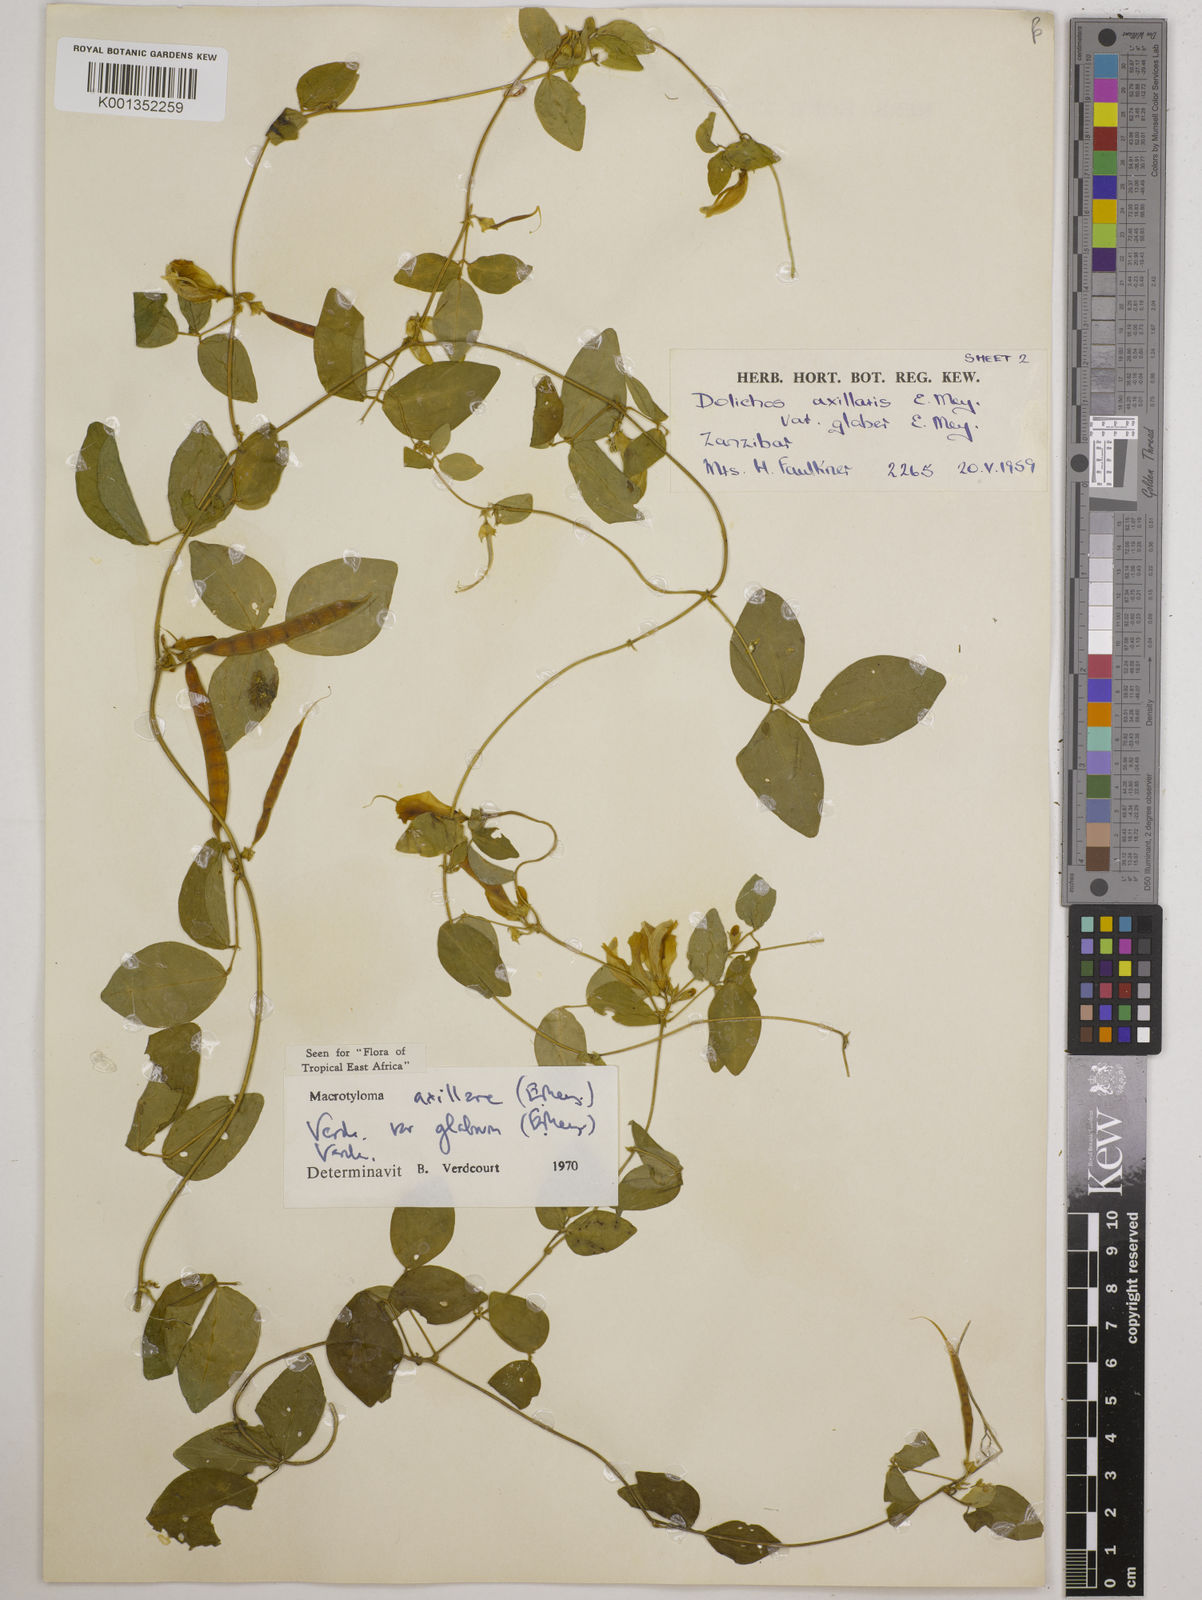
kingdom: Plantae
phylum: Tracheophyta
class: Magnoliopsida
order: Fabales
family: Fabaceae
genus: Macrotyloma
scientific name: Macrotyloma
